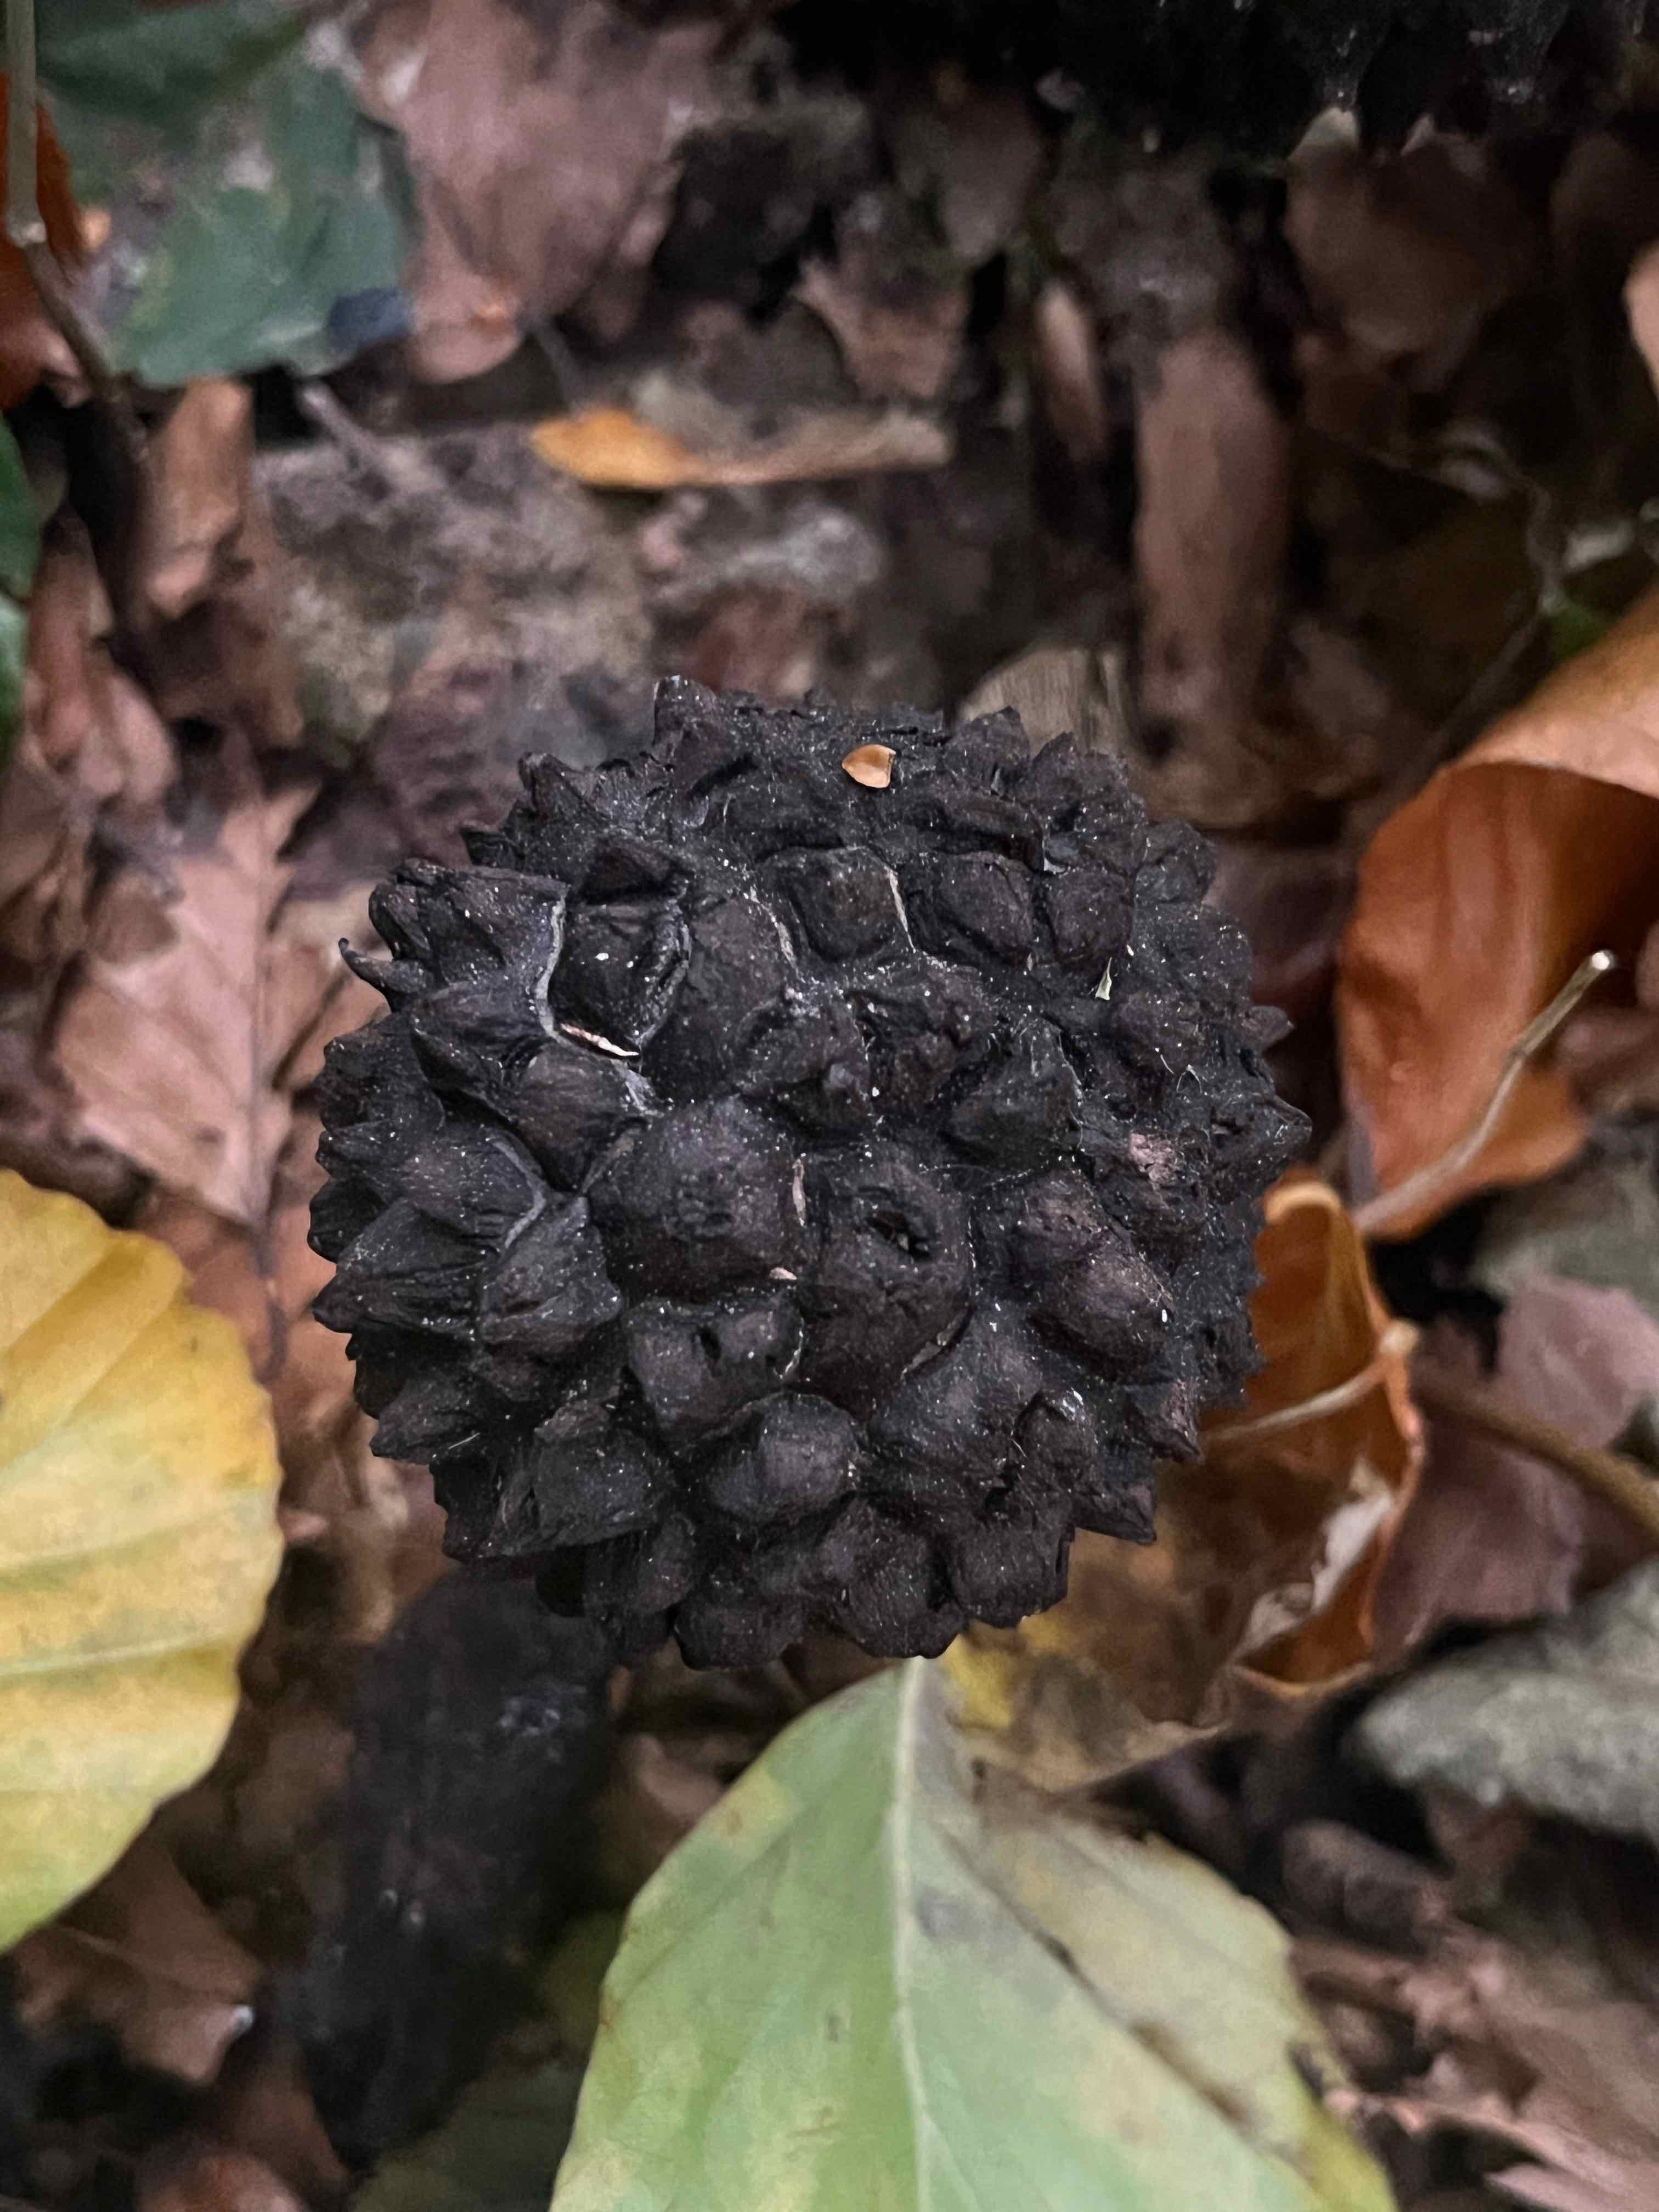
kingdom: Fungi
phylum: Basidiomycota
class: Agaricomycetes
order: Boletales
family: Boletaceae
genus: Strobilomyces
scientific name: Strobilomyces strobilaceus
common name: koglerørhat
